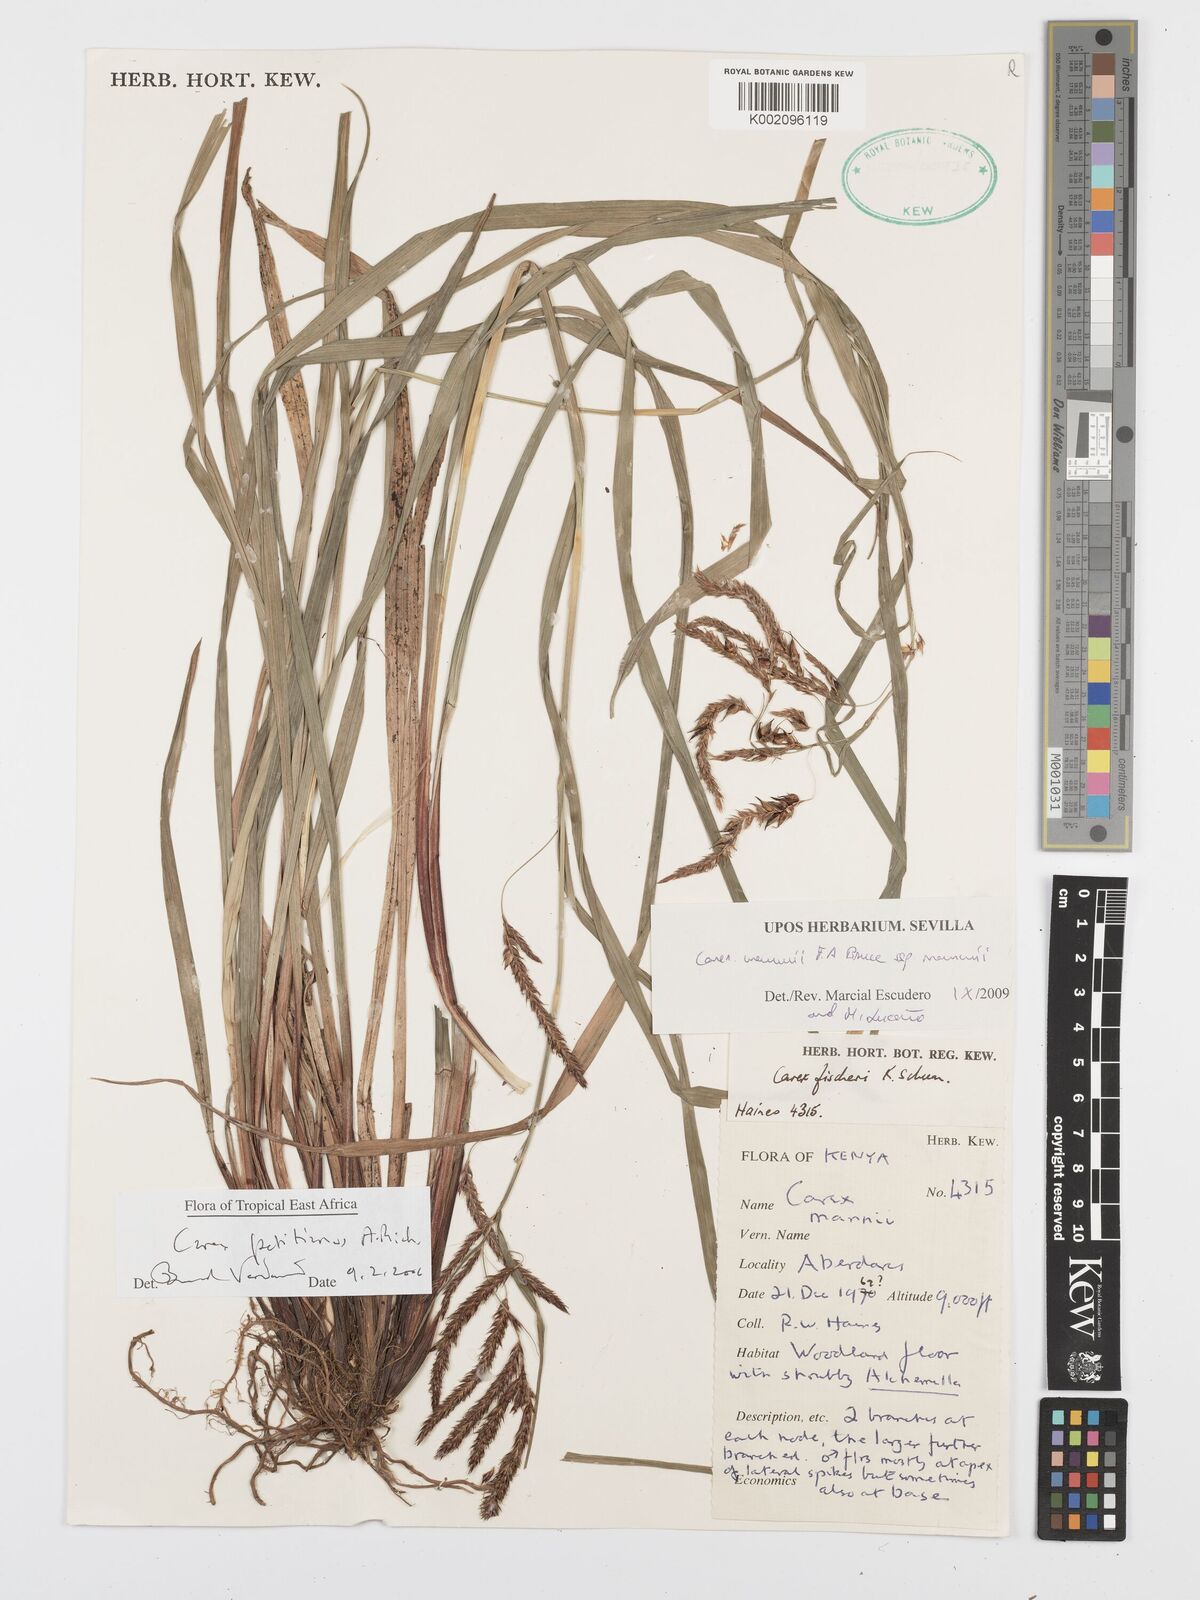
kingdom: Plantae
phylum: Tracheophyta
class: Liliopsida
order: Poales
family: Cyperaceae
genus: Carex
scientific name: Carex mannii
